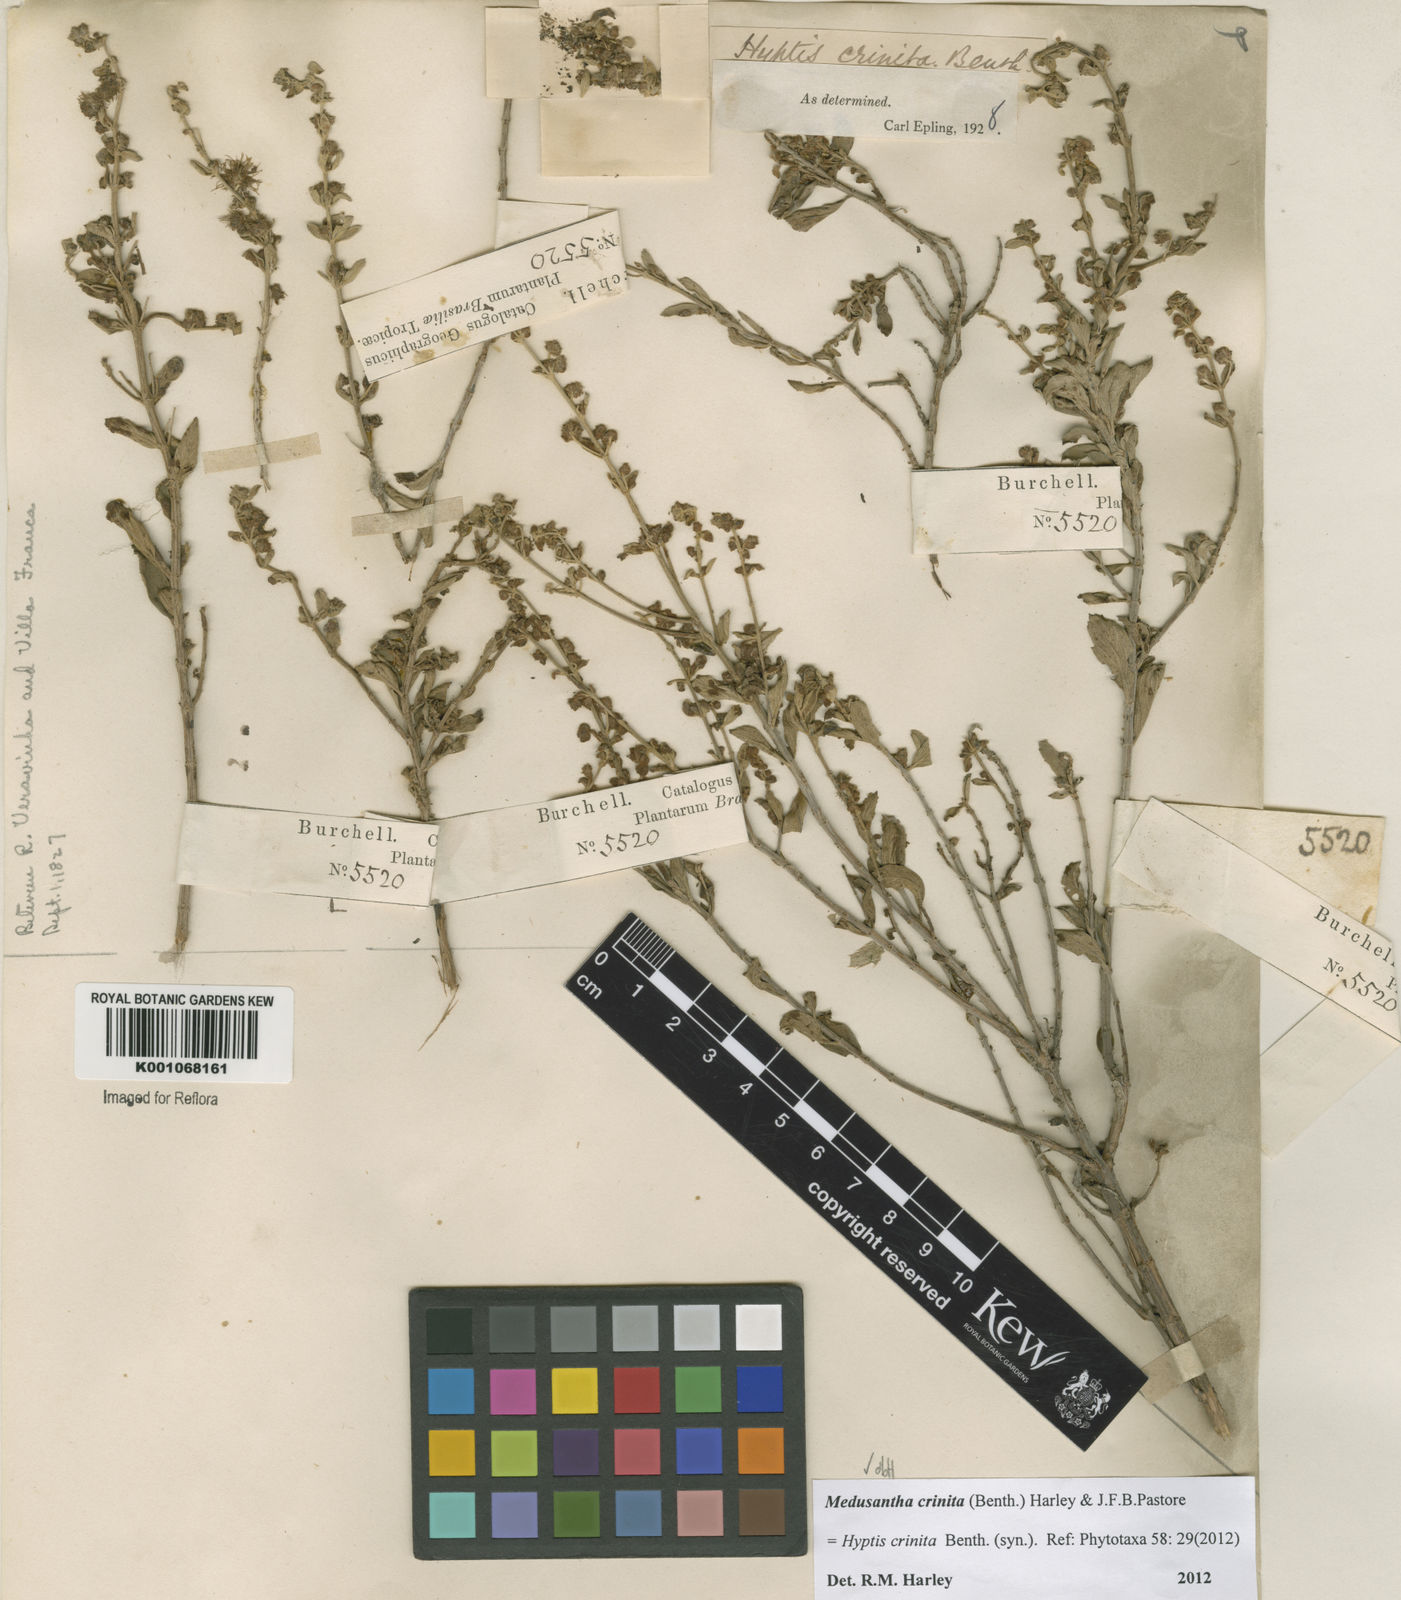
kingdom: Plantae
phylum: Tracheophyta
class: Magnoliopsida
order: Lamiales
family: Lamiaceae
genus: Medusantha
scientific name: Medusantha crinita
